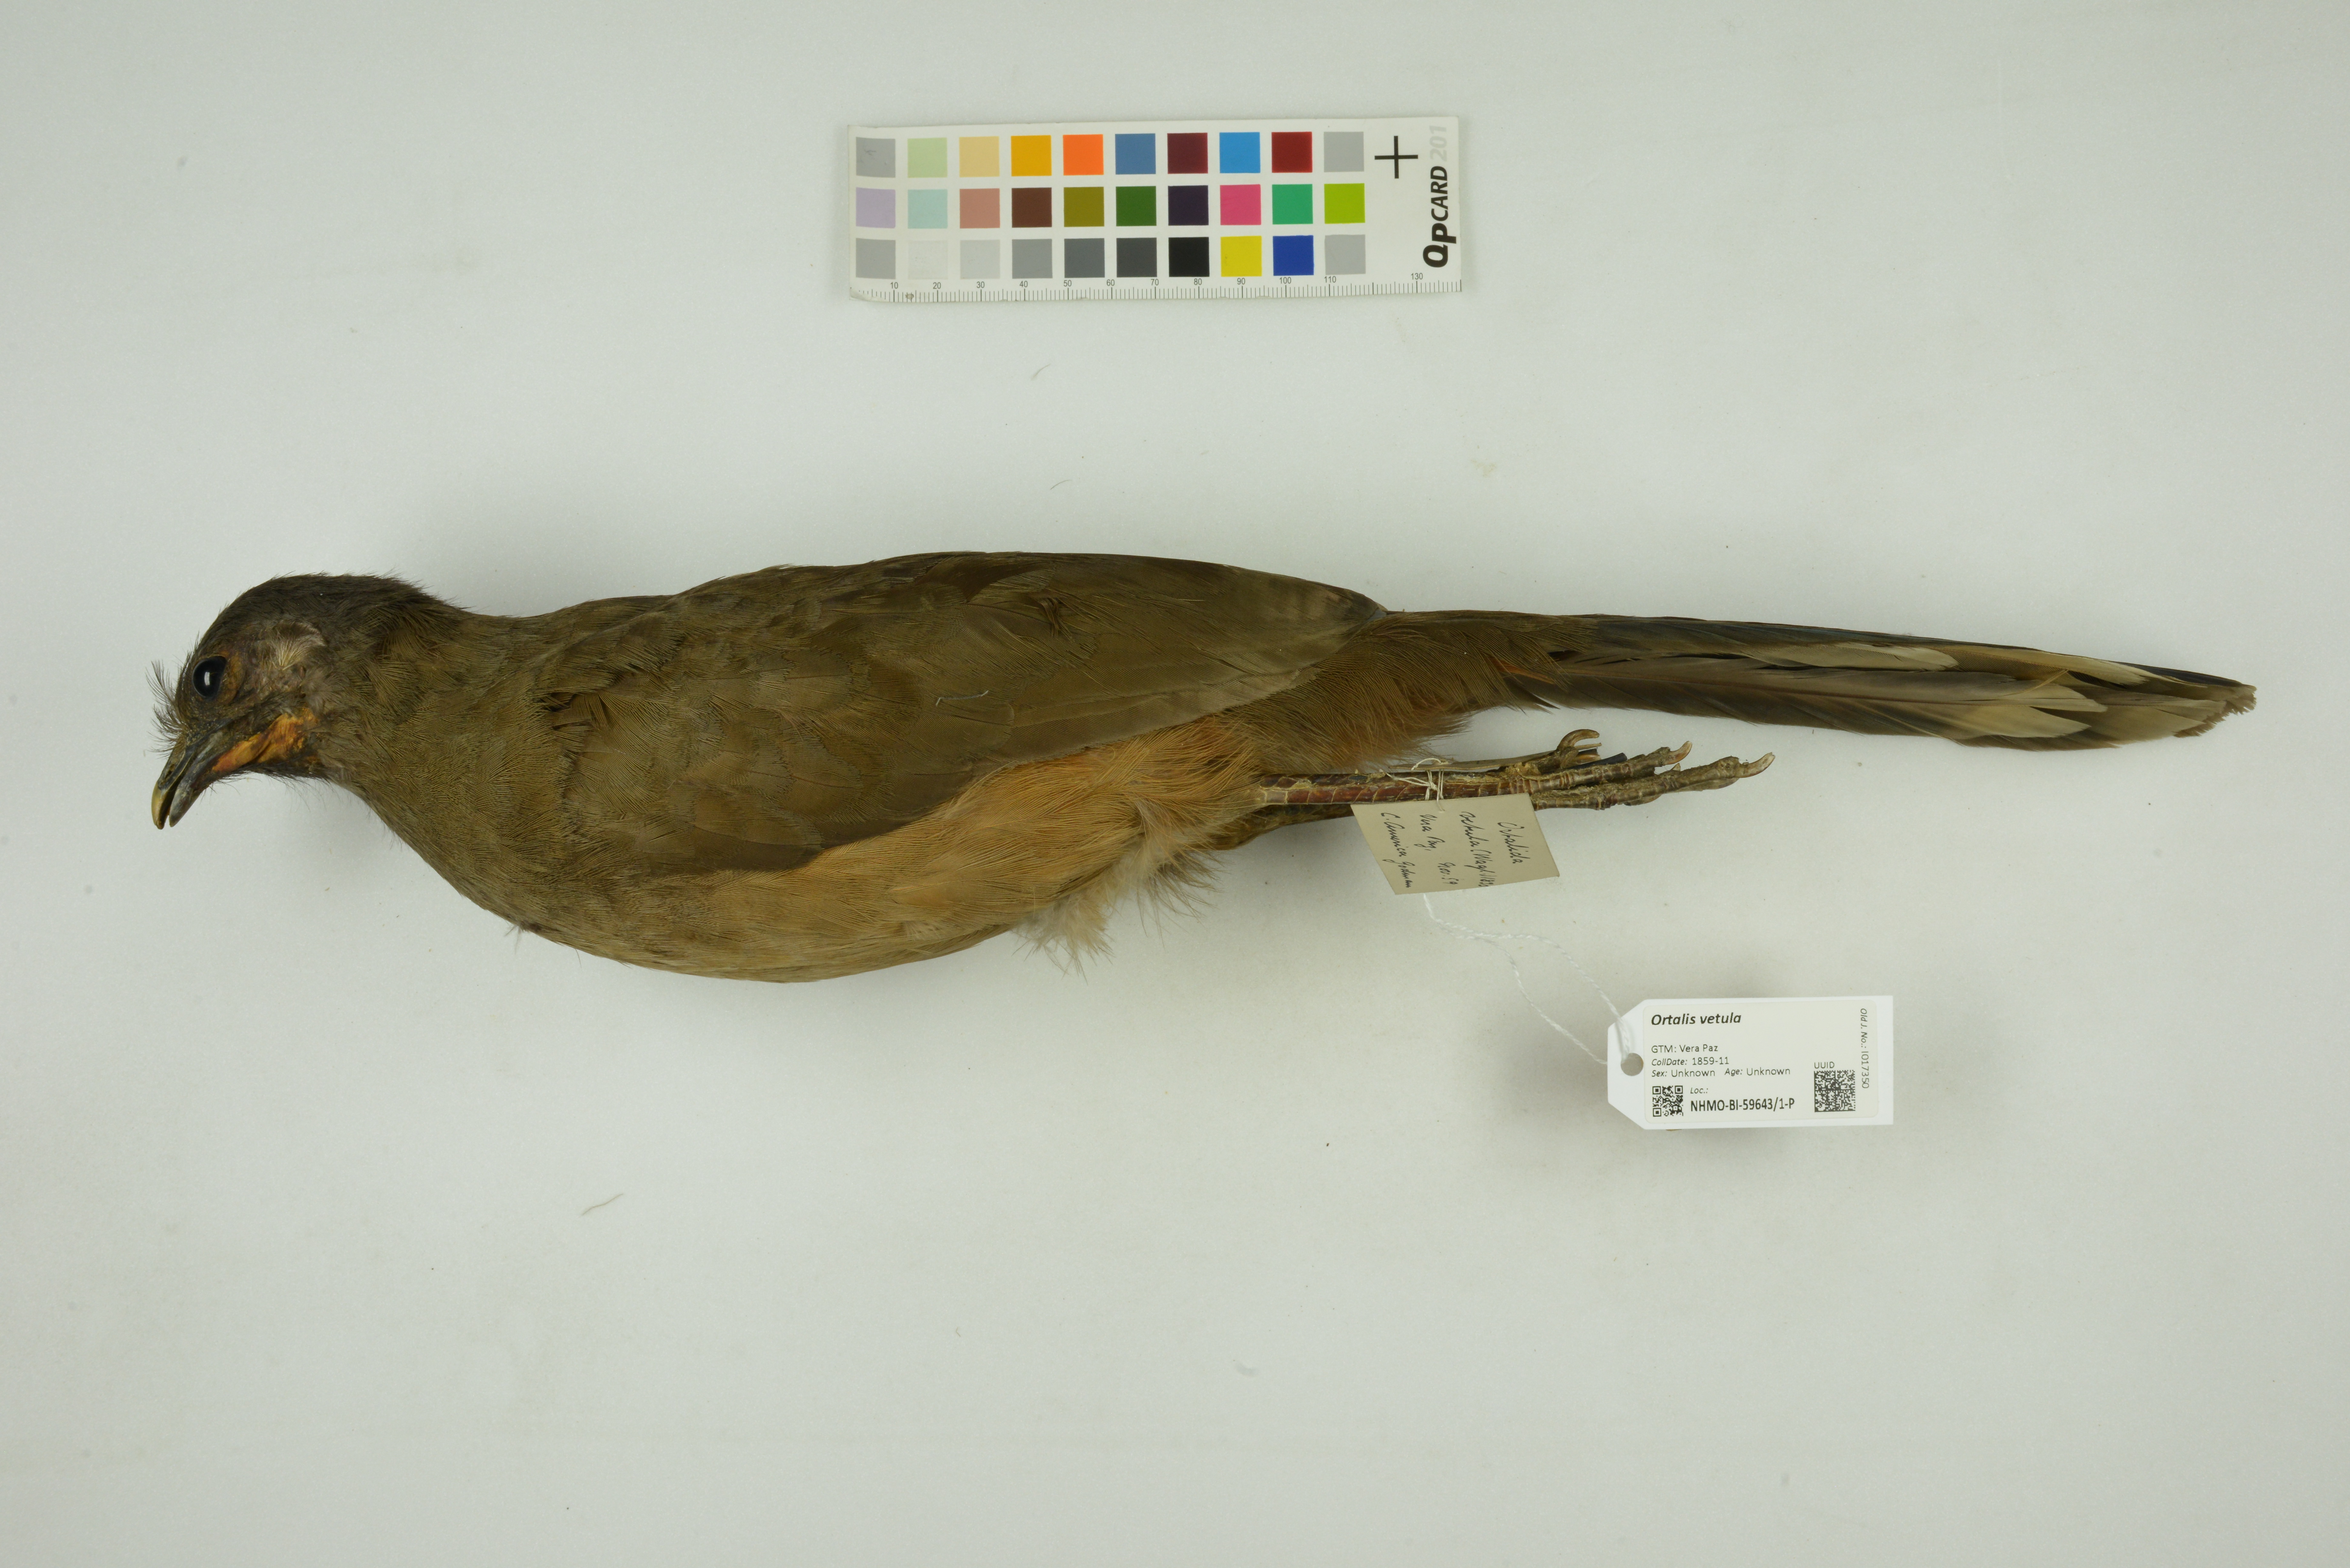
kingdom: Animalia
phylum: Chordata
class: Aves
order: Galliformes
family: Cracidae
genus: Ortalis
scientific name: Ortalis vetula
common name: Plain chachalaca
